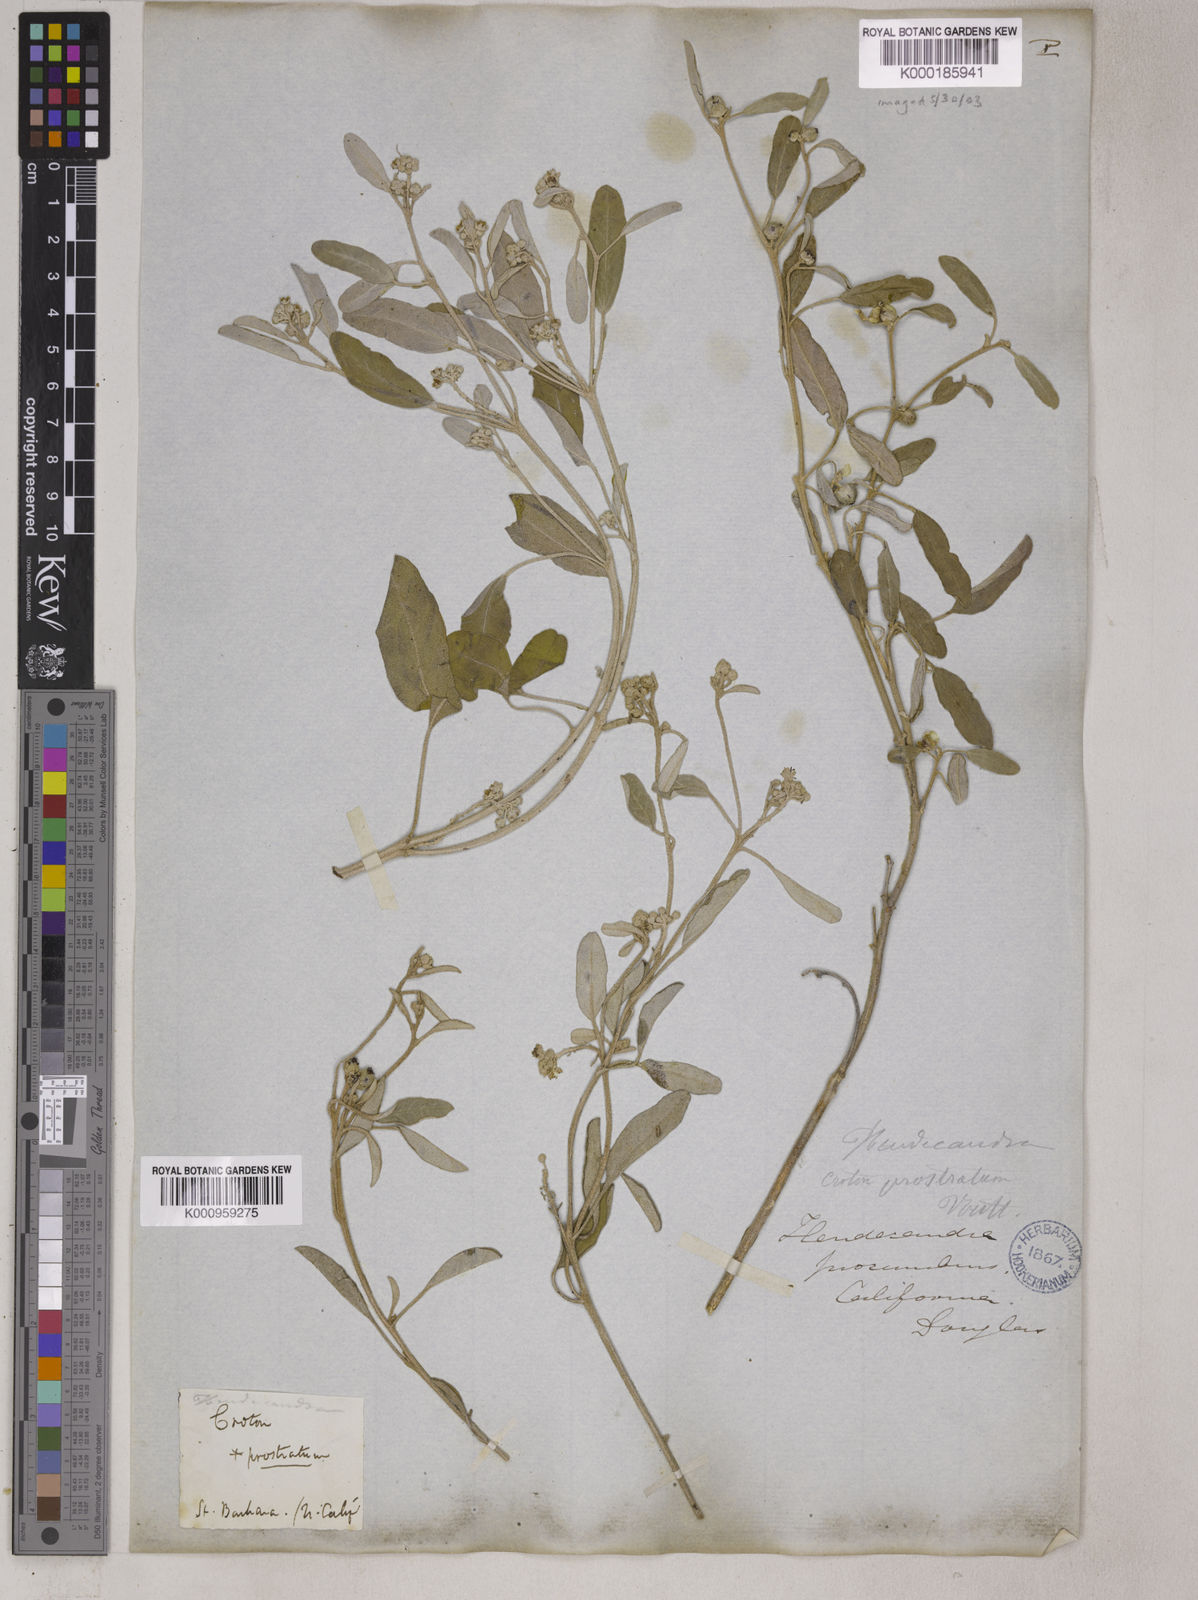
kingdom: Plantae
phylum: Tracheophyta
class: Magnoliopsida
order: Malpighiales
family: Euphorbiaceae
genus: Croton
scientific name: Croton
